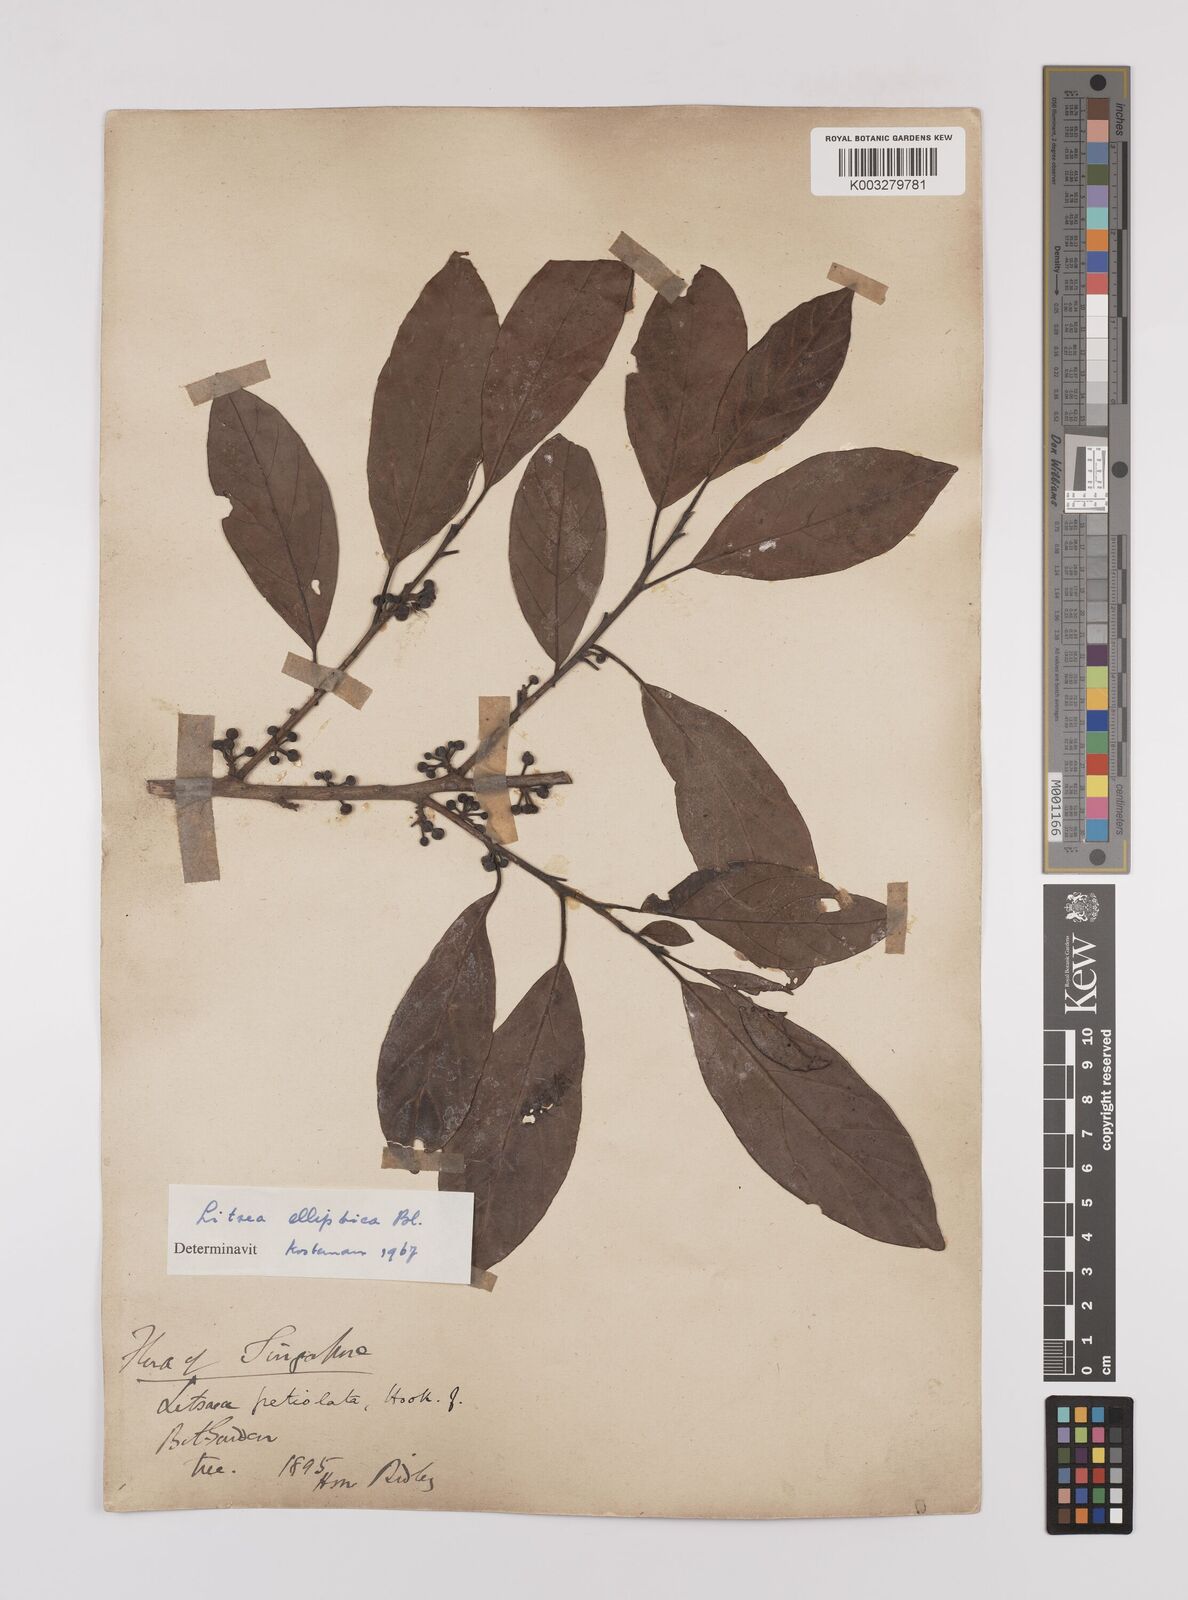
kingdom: Plantae
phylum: Tracheophyta
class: Magnoliopsida
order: Laurales
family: Lauraceae
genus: Litsea
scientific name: Litsea elliptica
